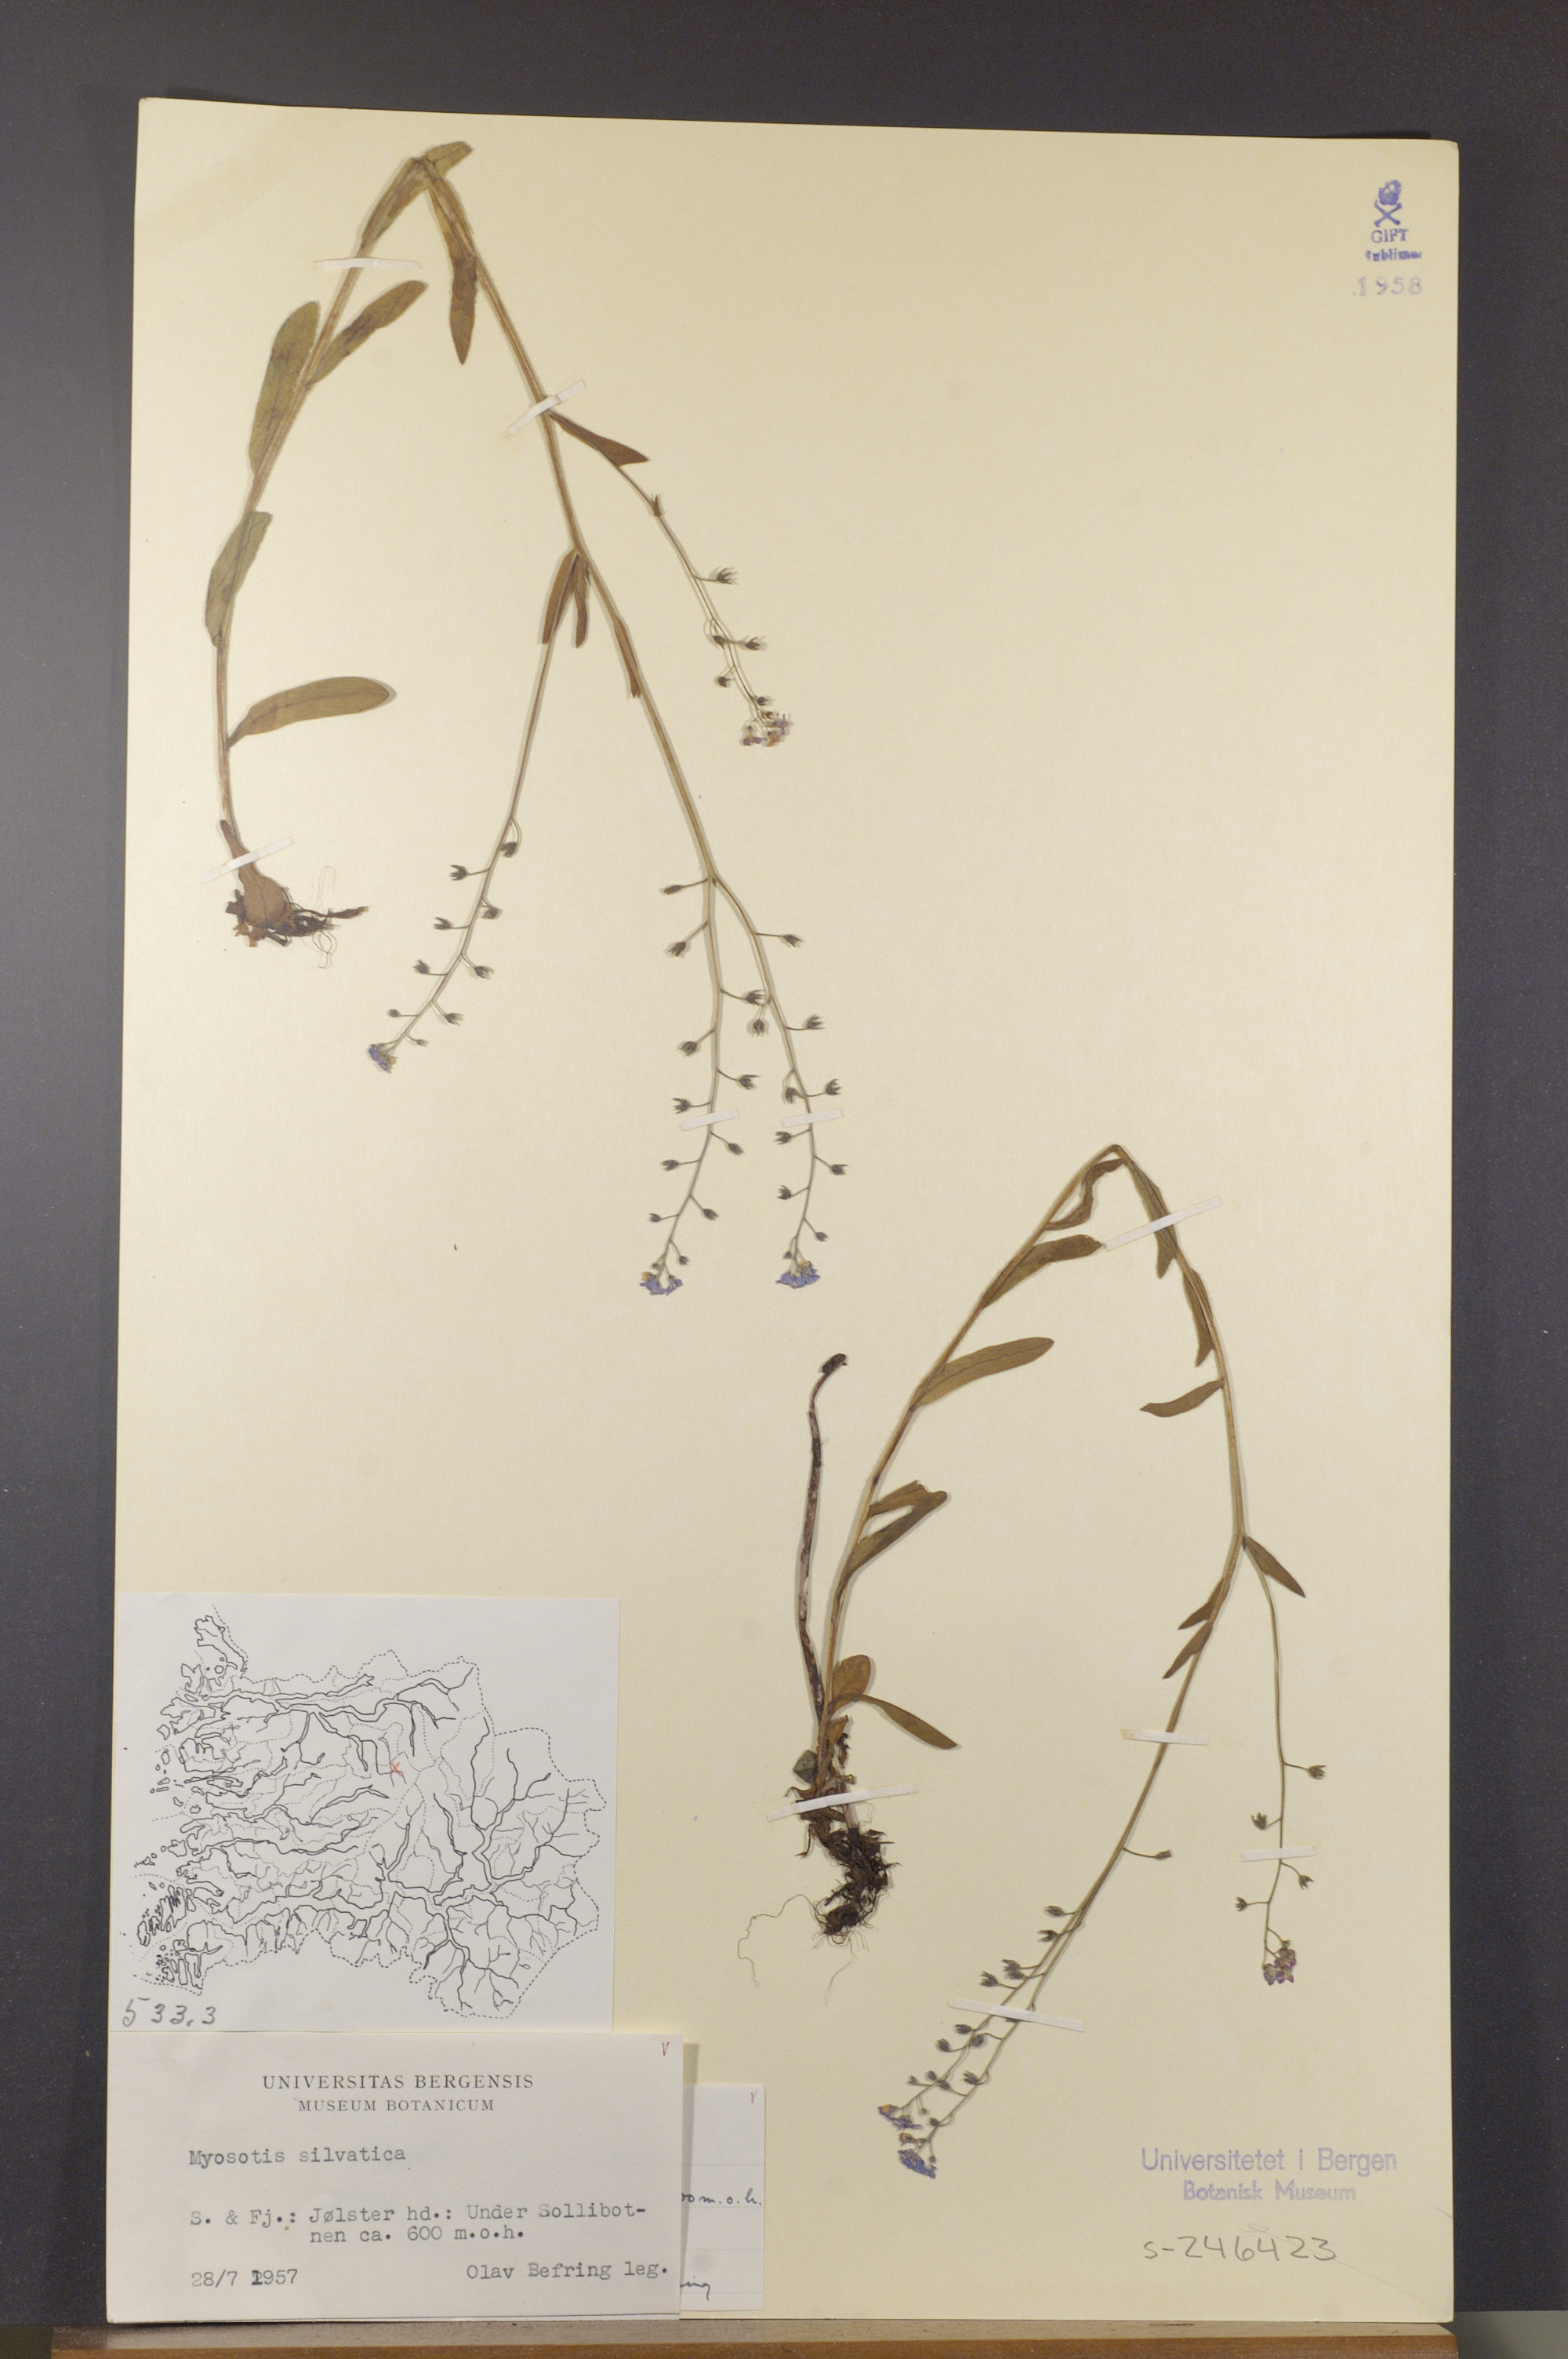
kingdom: Plantae
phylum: Tracheophyta
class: Magnoliopsida
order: Boraginales
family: Boraginaceae
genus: Myosotis
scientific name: Myosotis decumbens
